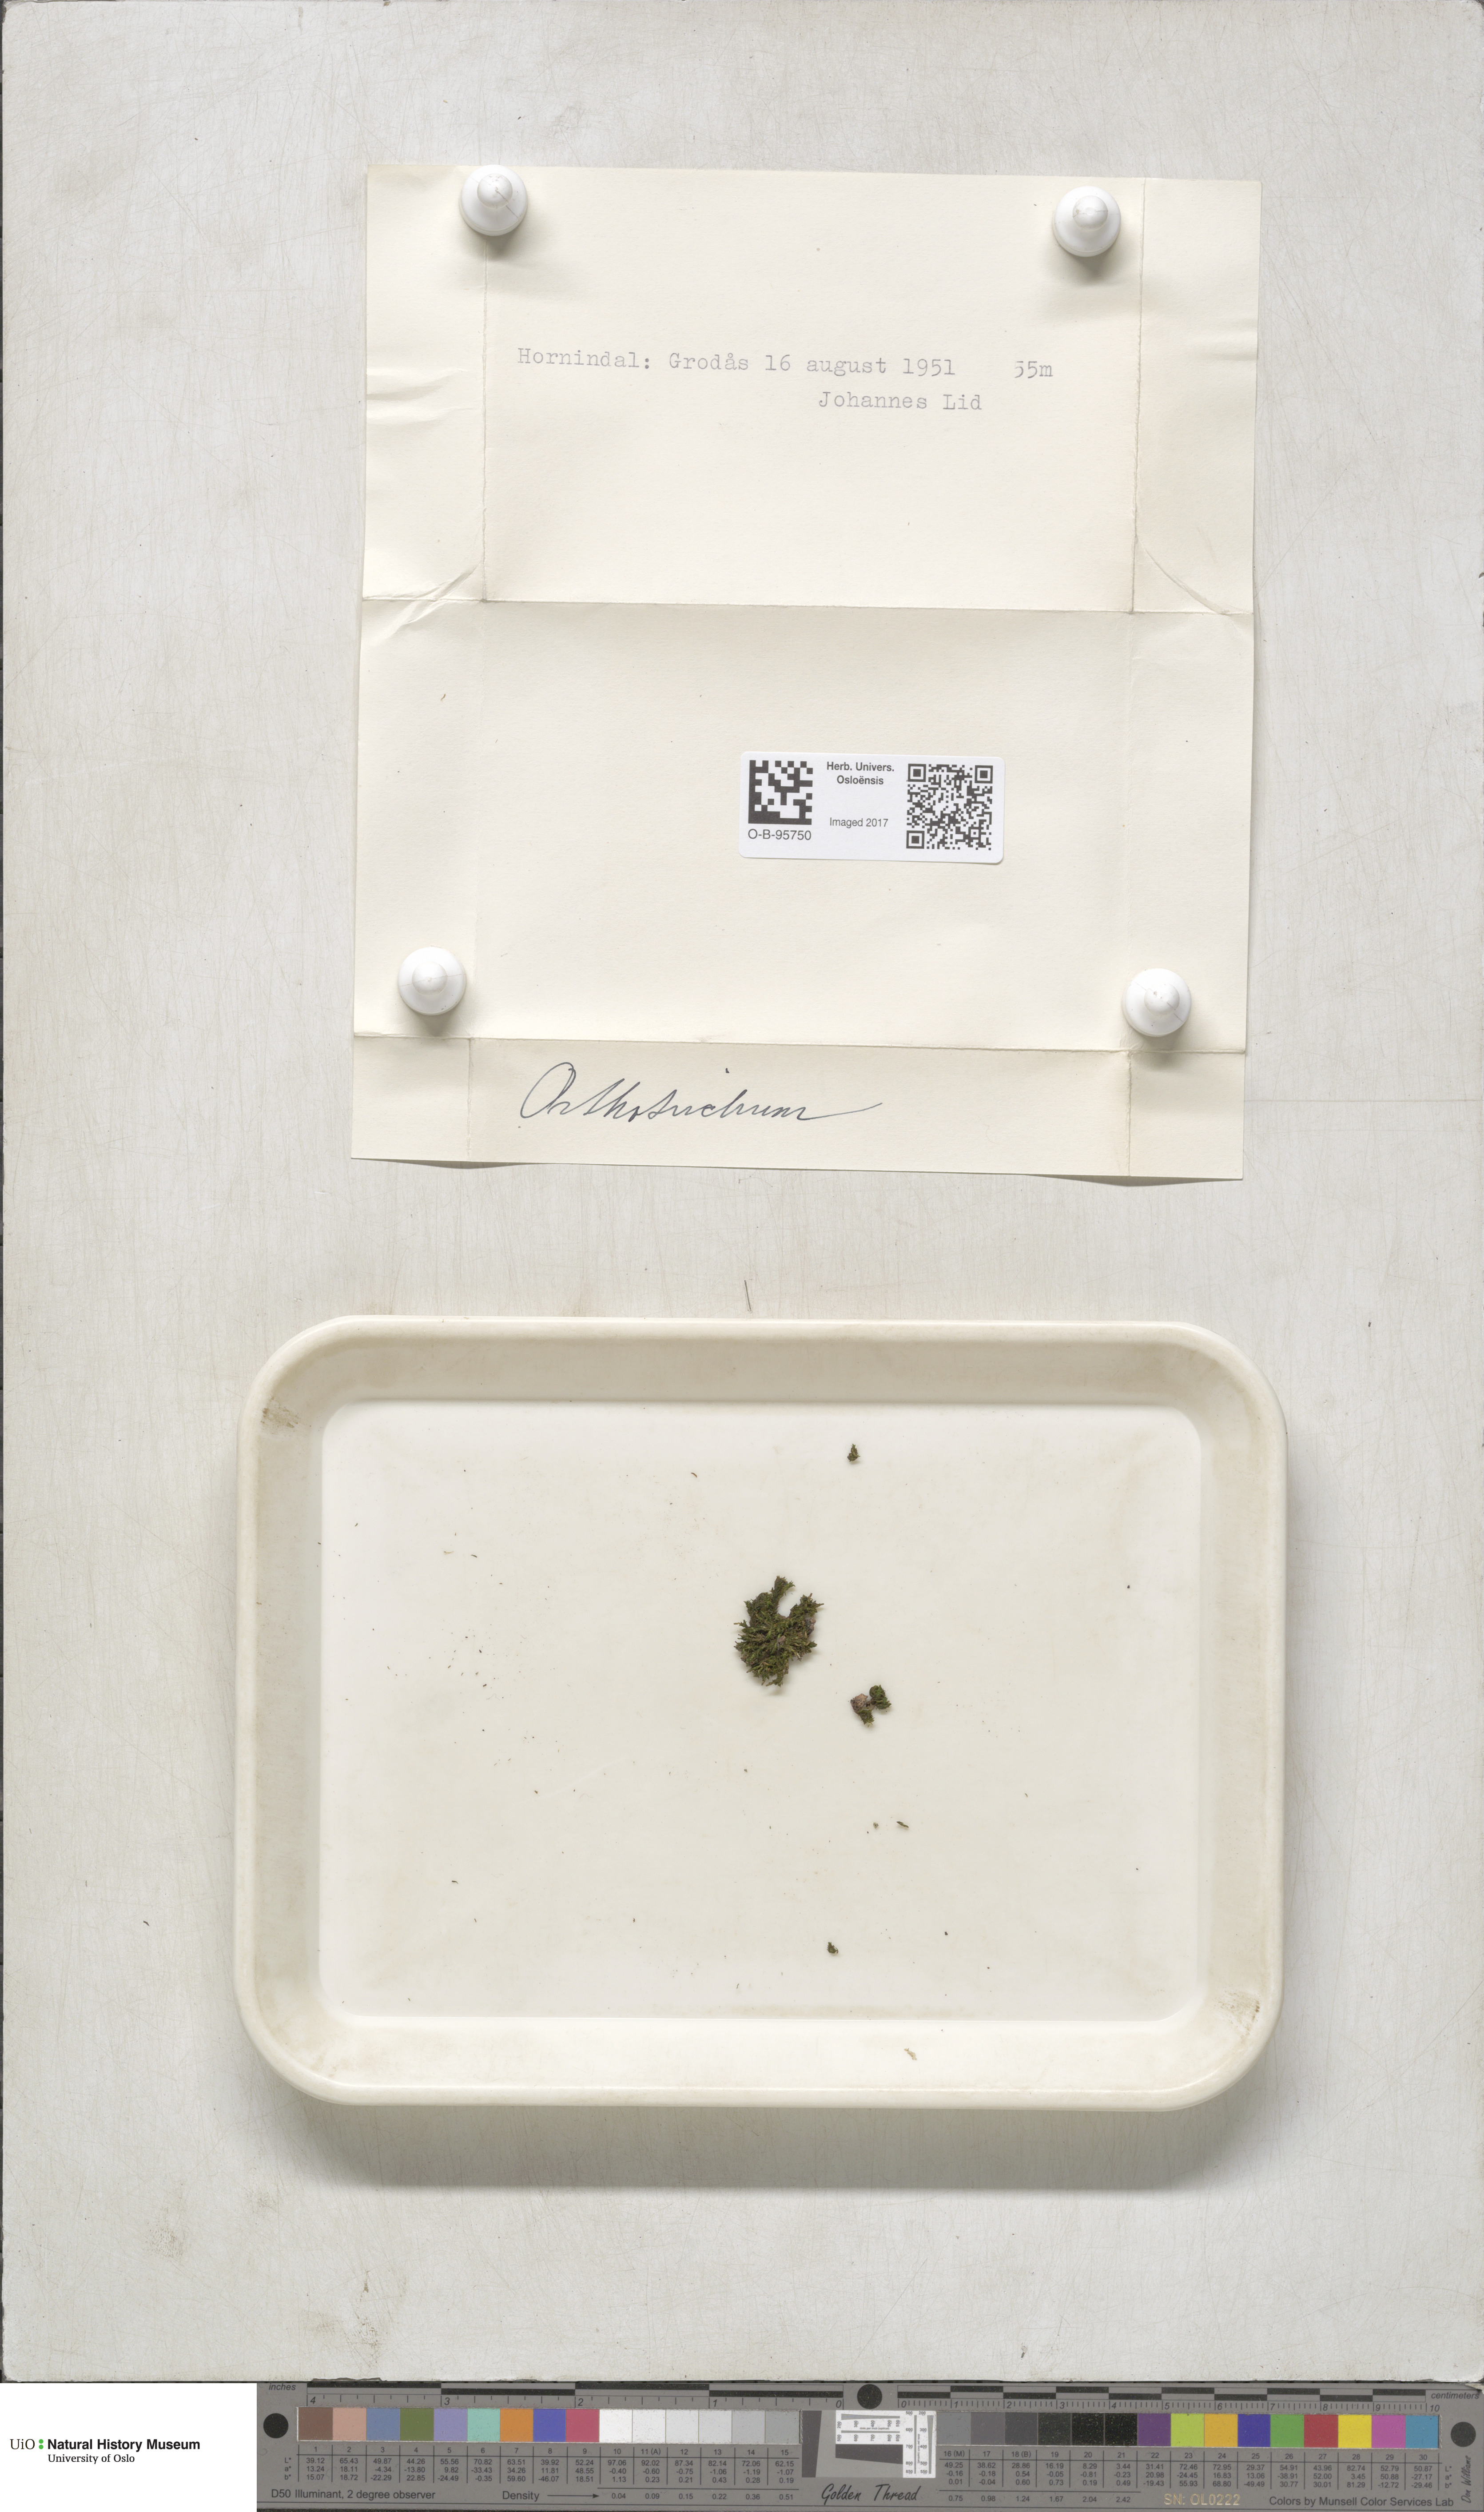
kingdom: Plantae
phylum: Bryophyta
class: Bryopsida
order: Orthotrichales
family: Orthotrichaceae
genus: Orthotrichum
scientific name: Orthotrichum
